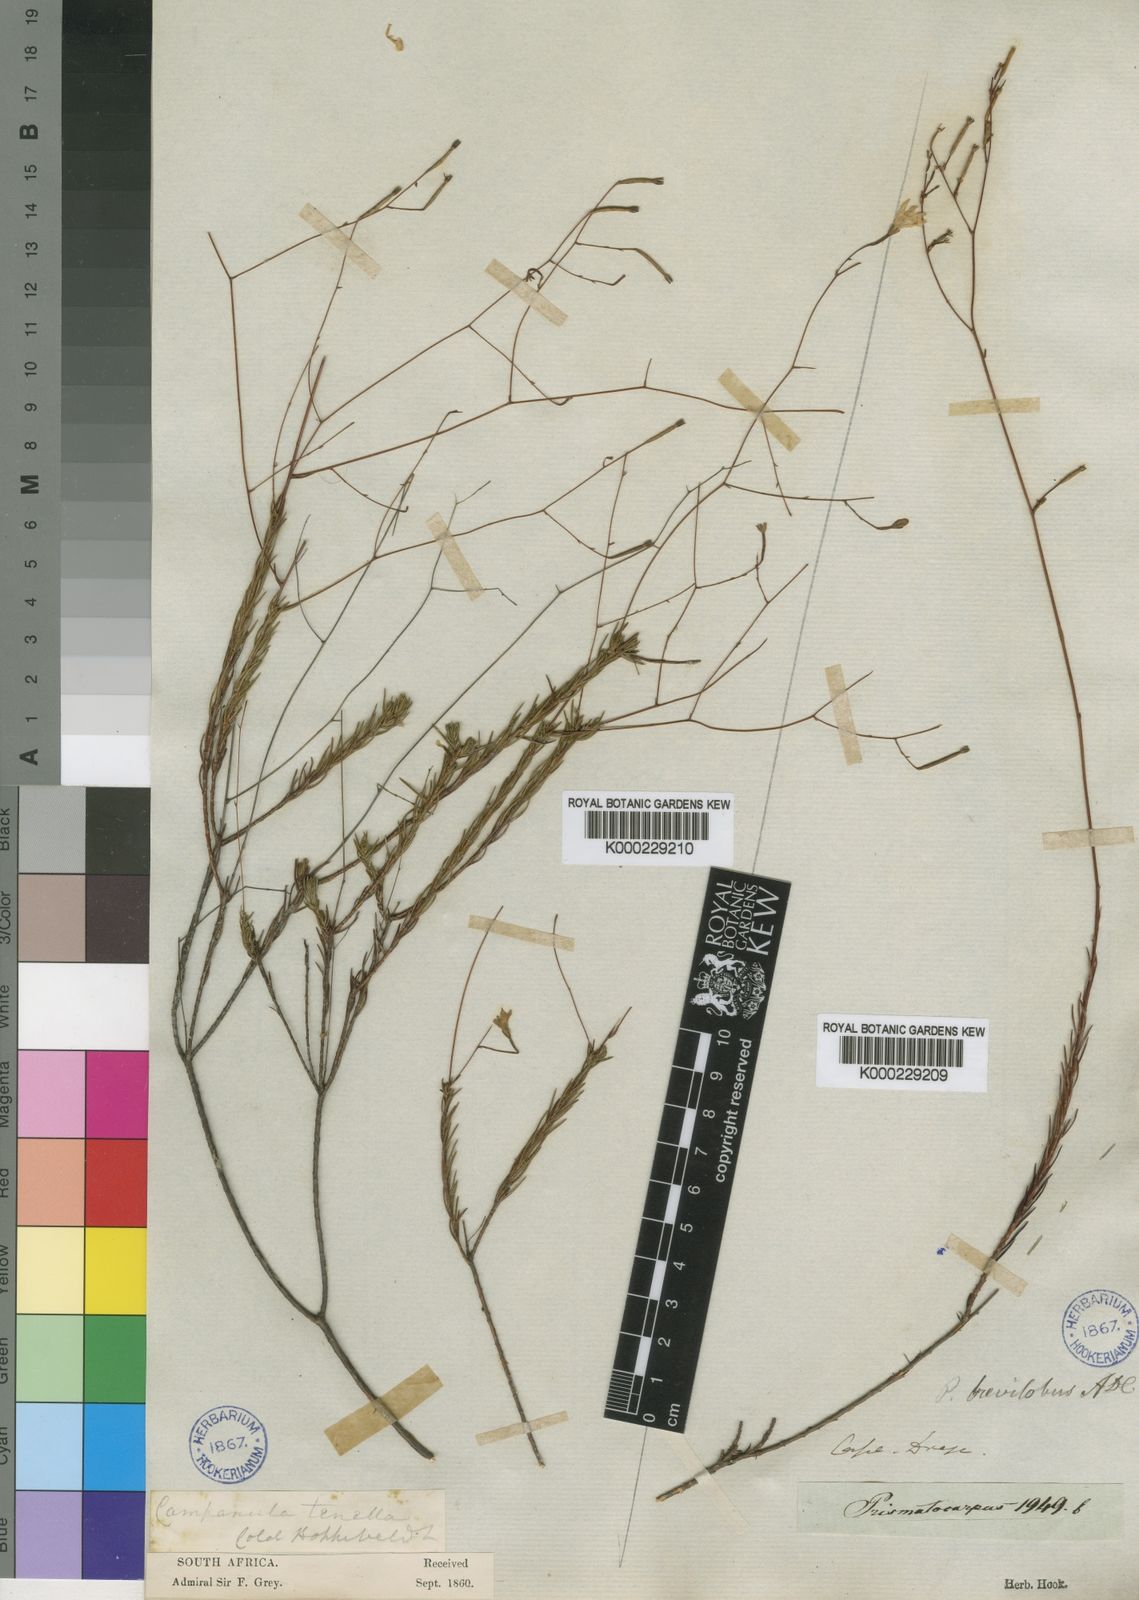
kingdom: Plantae
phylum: Tracheophyta
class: Magnoliopsida
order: Asterales
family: Campanulaceae
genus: Prismatocarpus
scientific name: Prismatocarpus brevilobus
